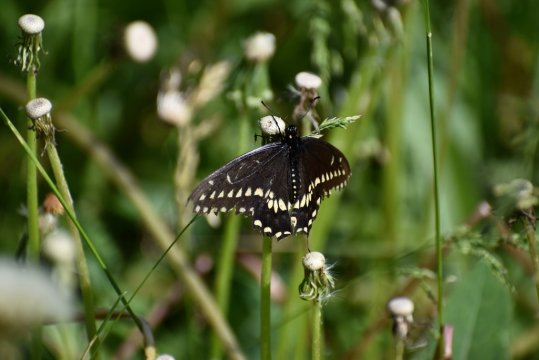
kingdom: Animalia
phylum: Arthropoda
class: Insecta
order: Lepidoptera
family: Papilionidae
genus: Papilio
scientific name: Papilio polyxenes
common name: Black Swallowtail
